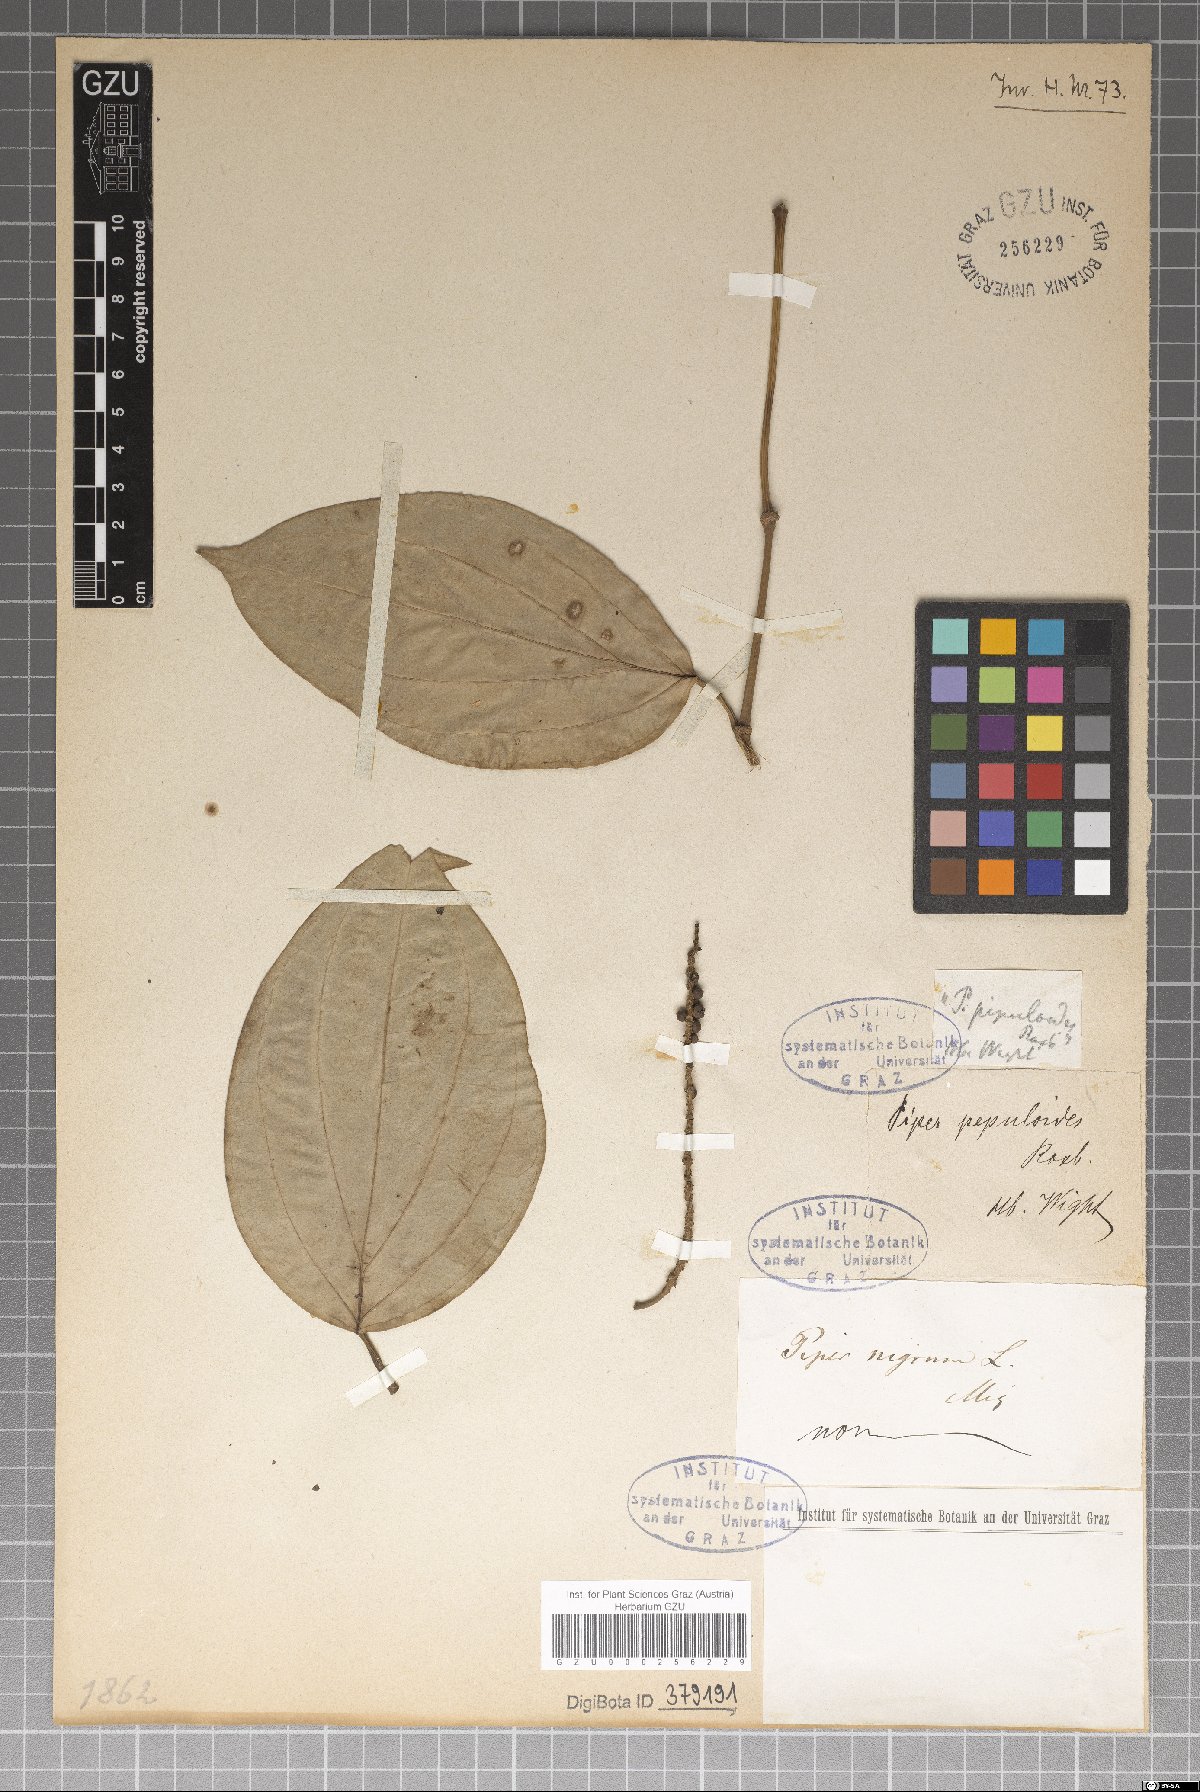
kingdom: Plantae
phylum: Tracheophyta
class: Magnoliopsida
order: Piperales
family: Piperaceae
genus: Piper
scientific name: Piper peepuloides
